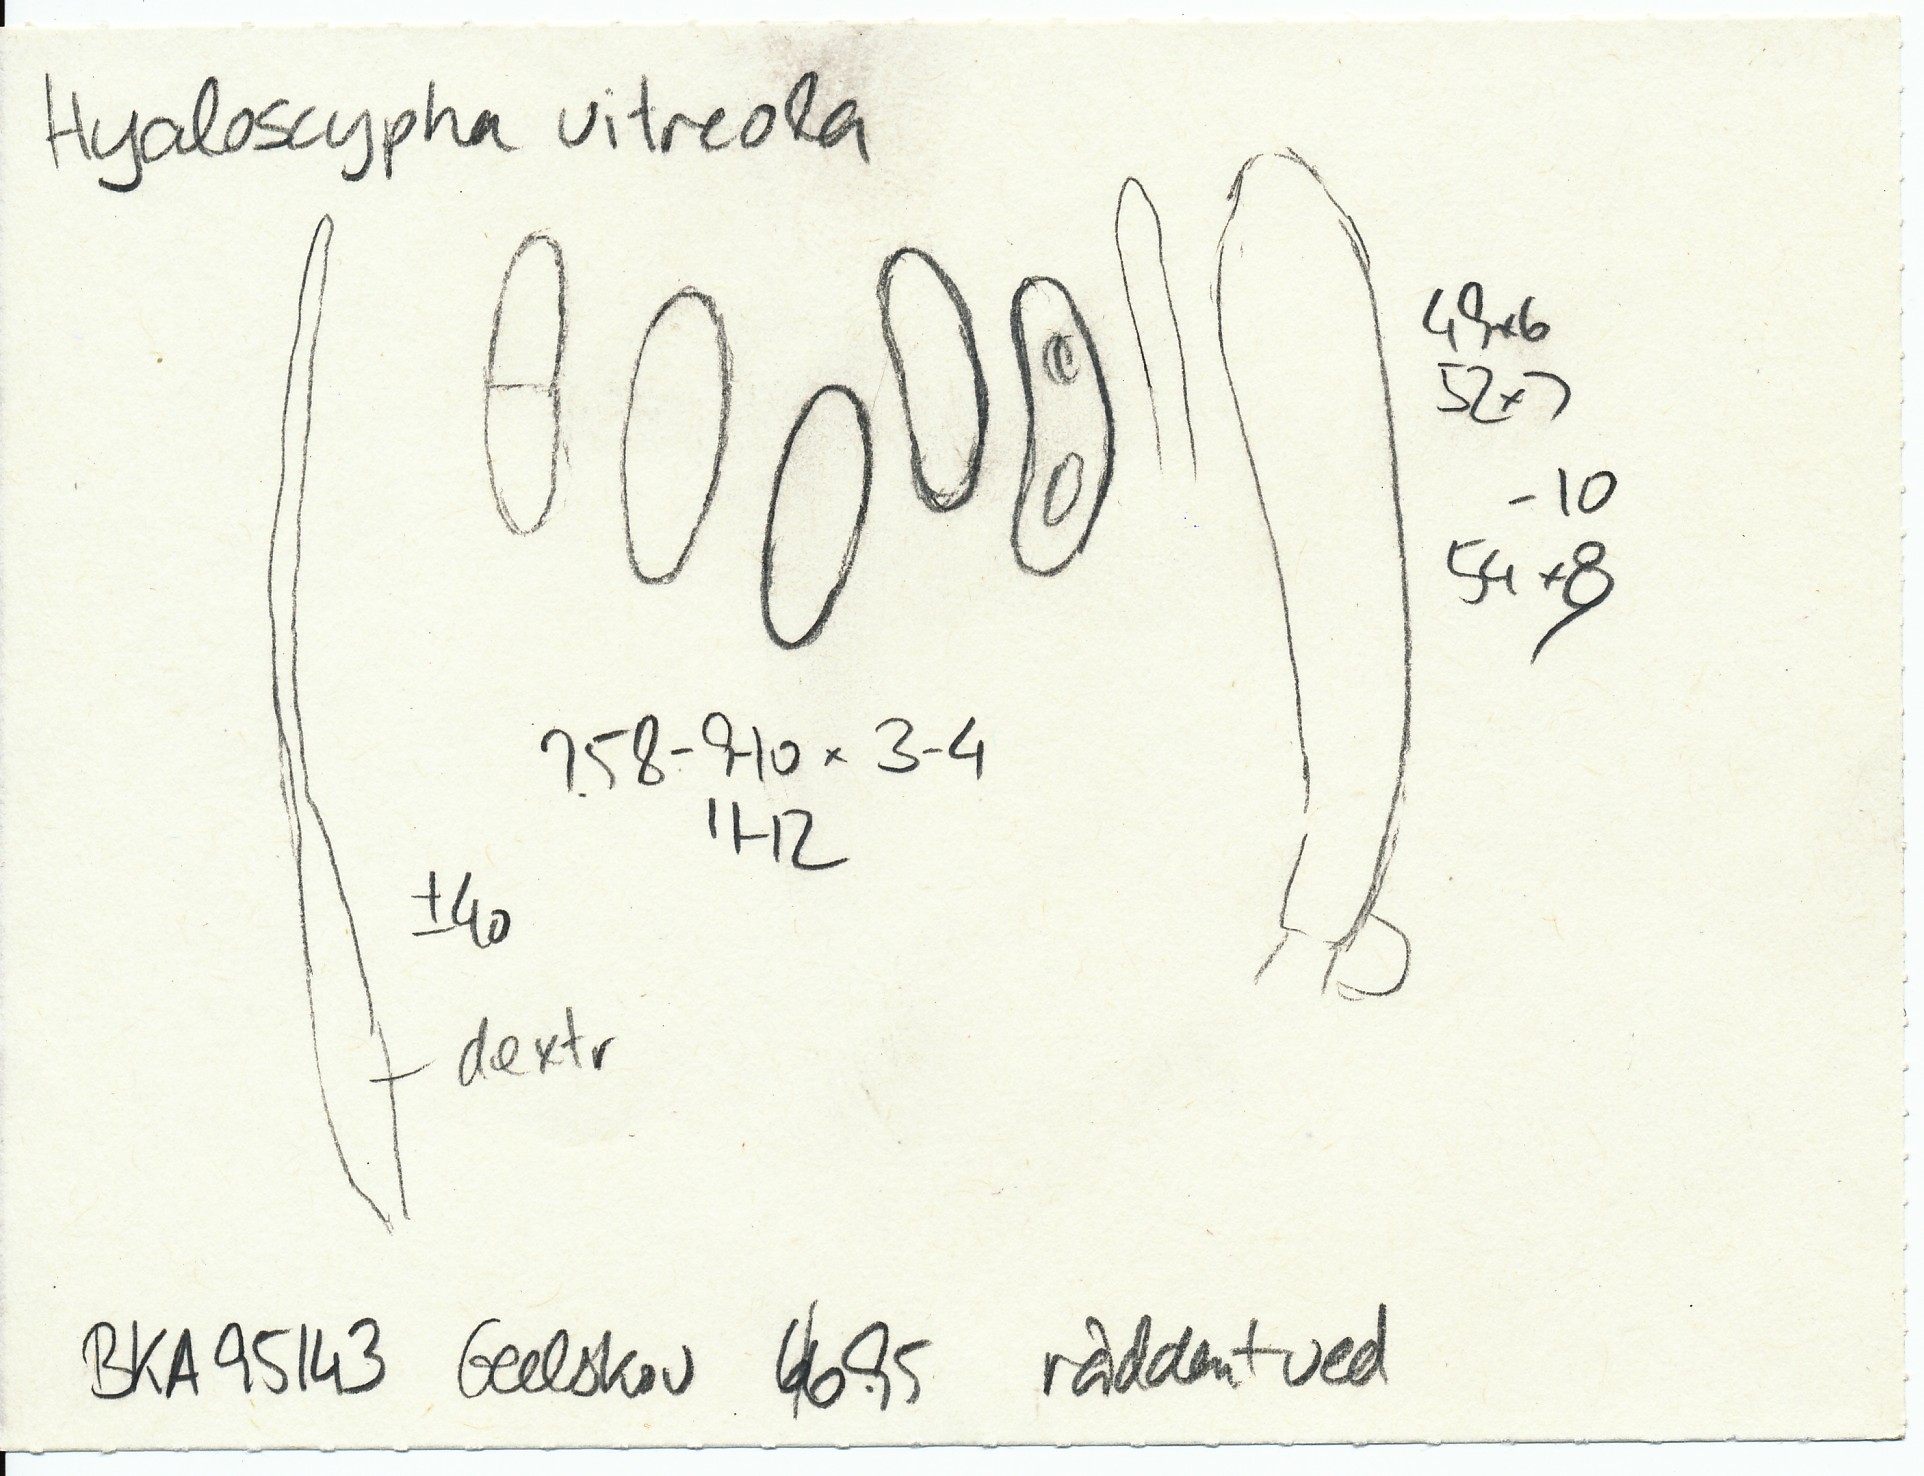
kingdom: Fungi
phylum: Ascomycota
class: Leotiomycetes
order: Helotiales
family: Hyaloscyphaceae
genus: Hyaloscypha
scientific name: Hyaloscypha vitreola
